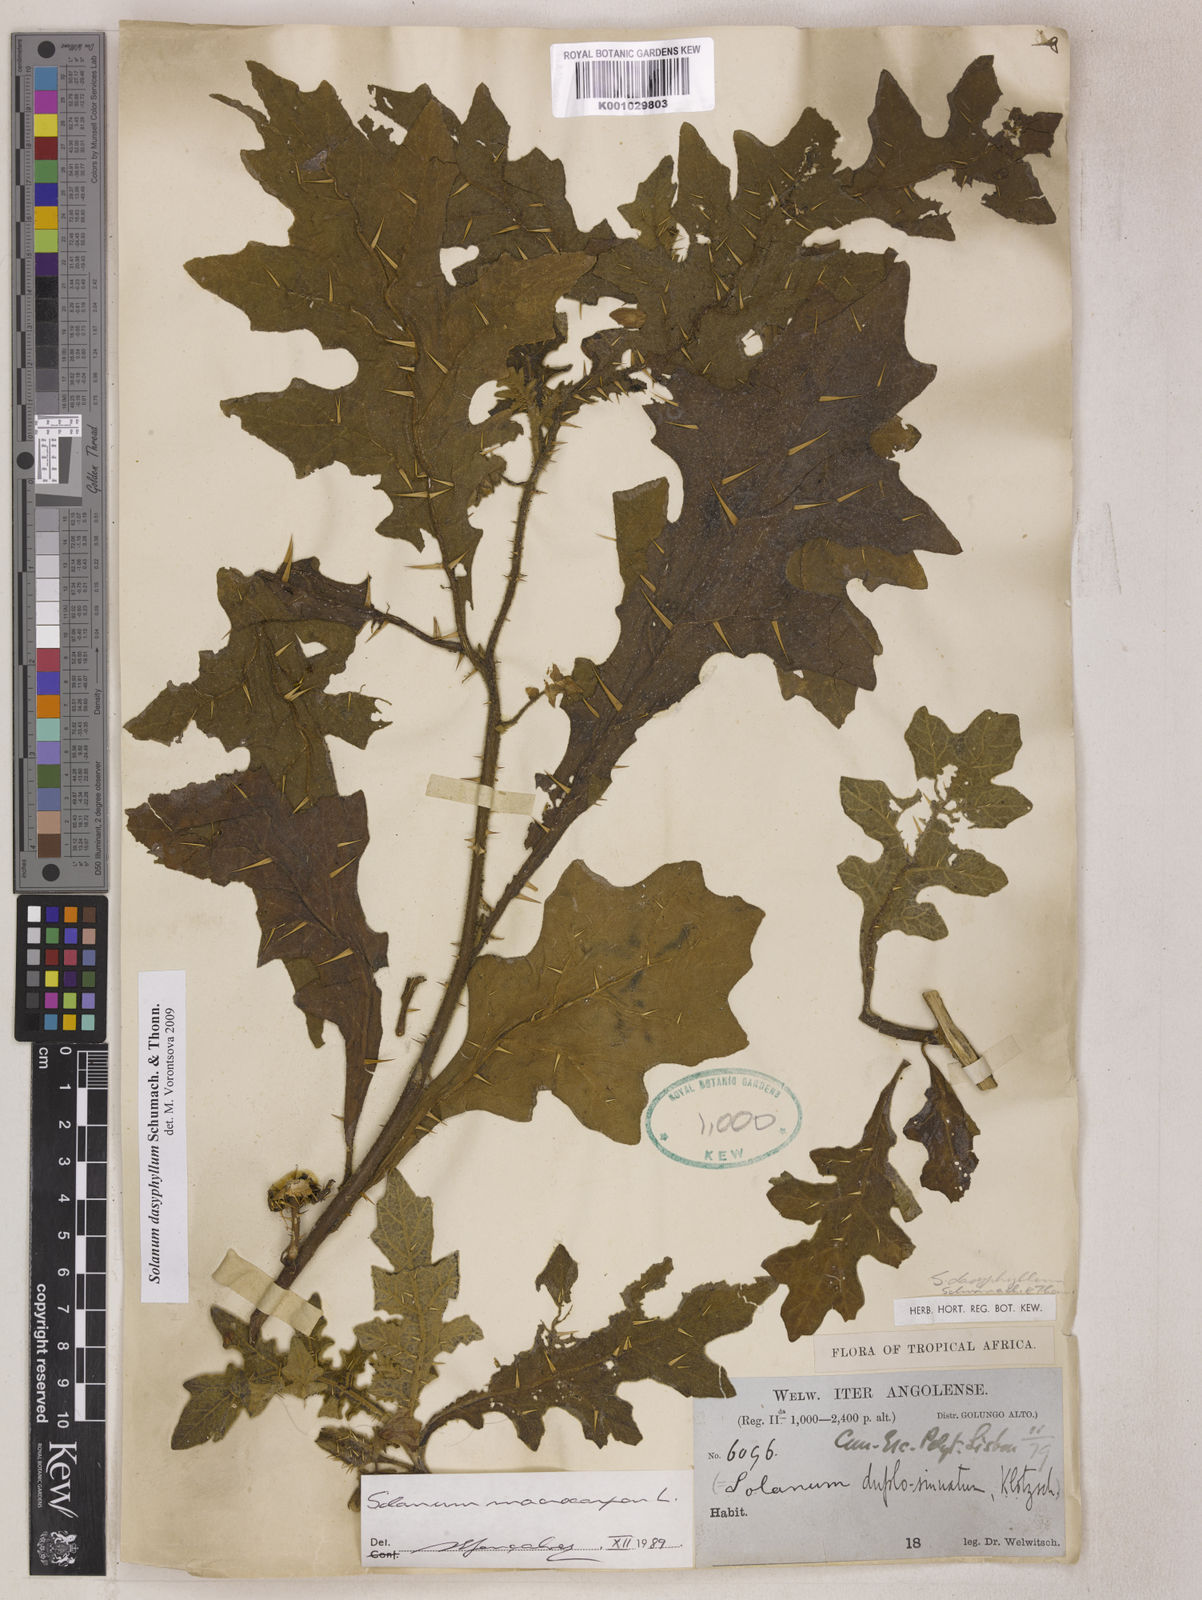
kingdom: Plantae
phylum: Tracheophyta
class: Magnoliopsida
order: Solanales
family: Solanaceae
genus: Solanum
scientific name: Solanum dasyphyllum
